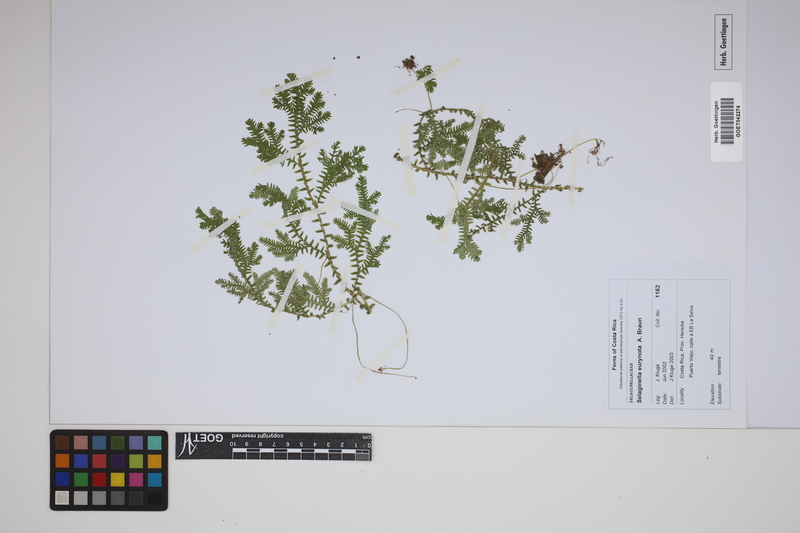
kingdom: Plantae
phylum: Tracheophyta
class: Lycopodiopsida
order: Selaginellales
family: Selaginellaceae
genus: Selaginella
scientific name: Selaginella eurynota
